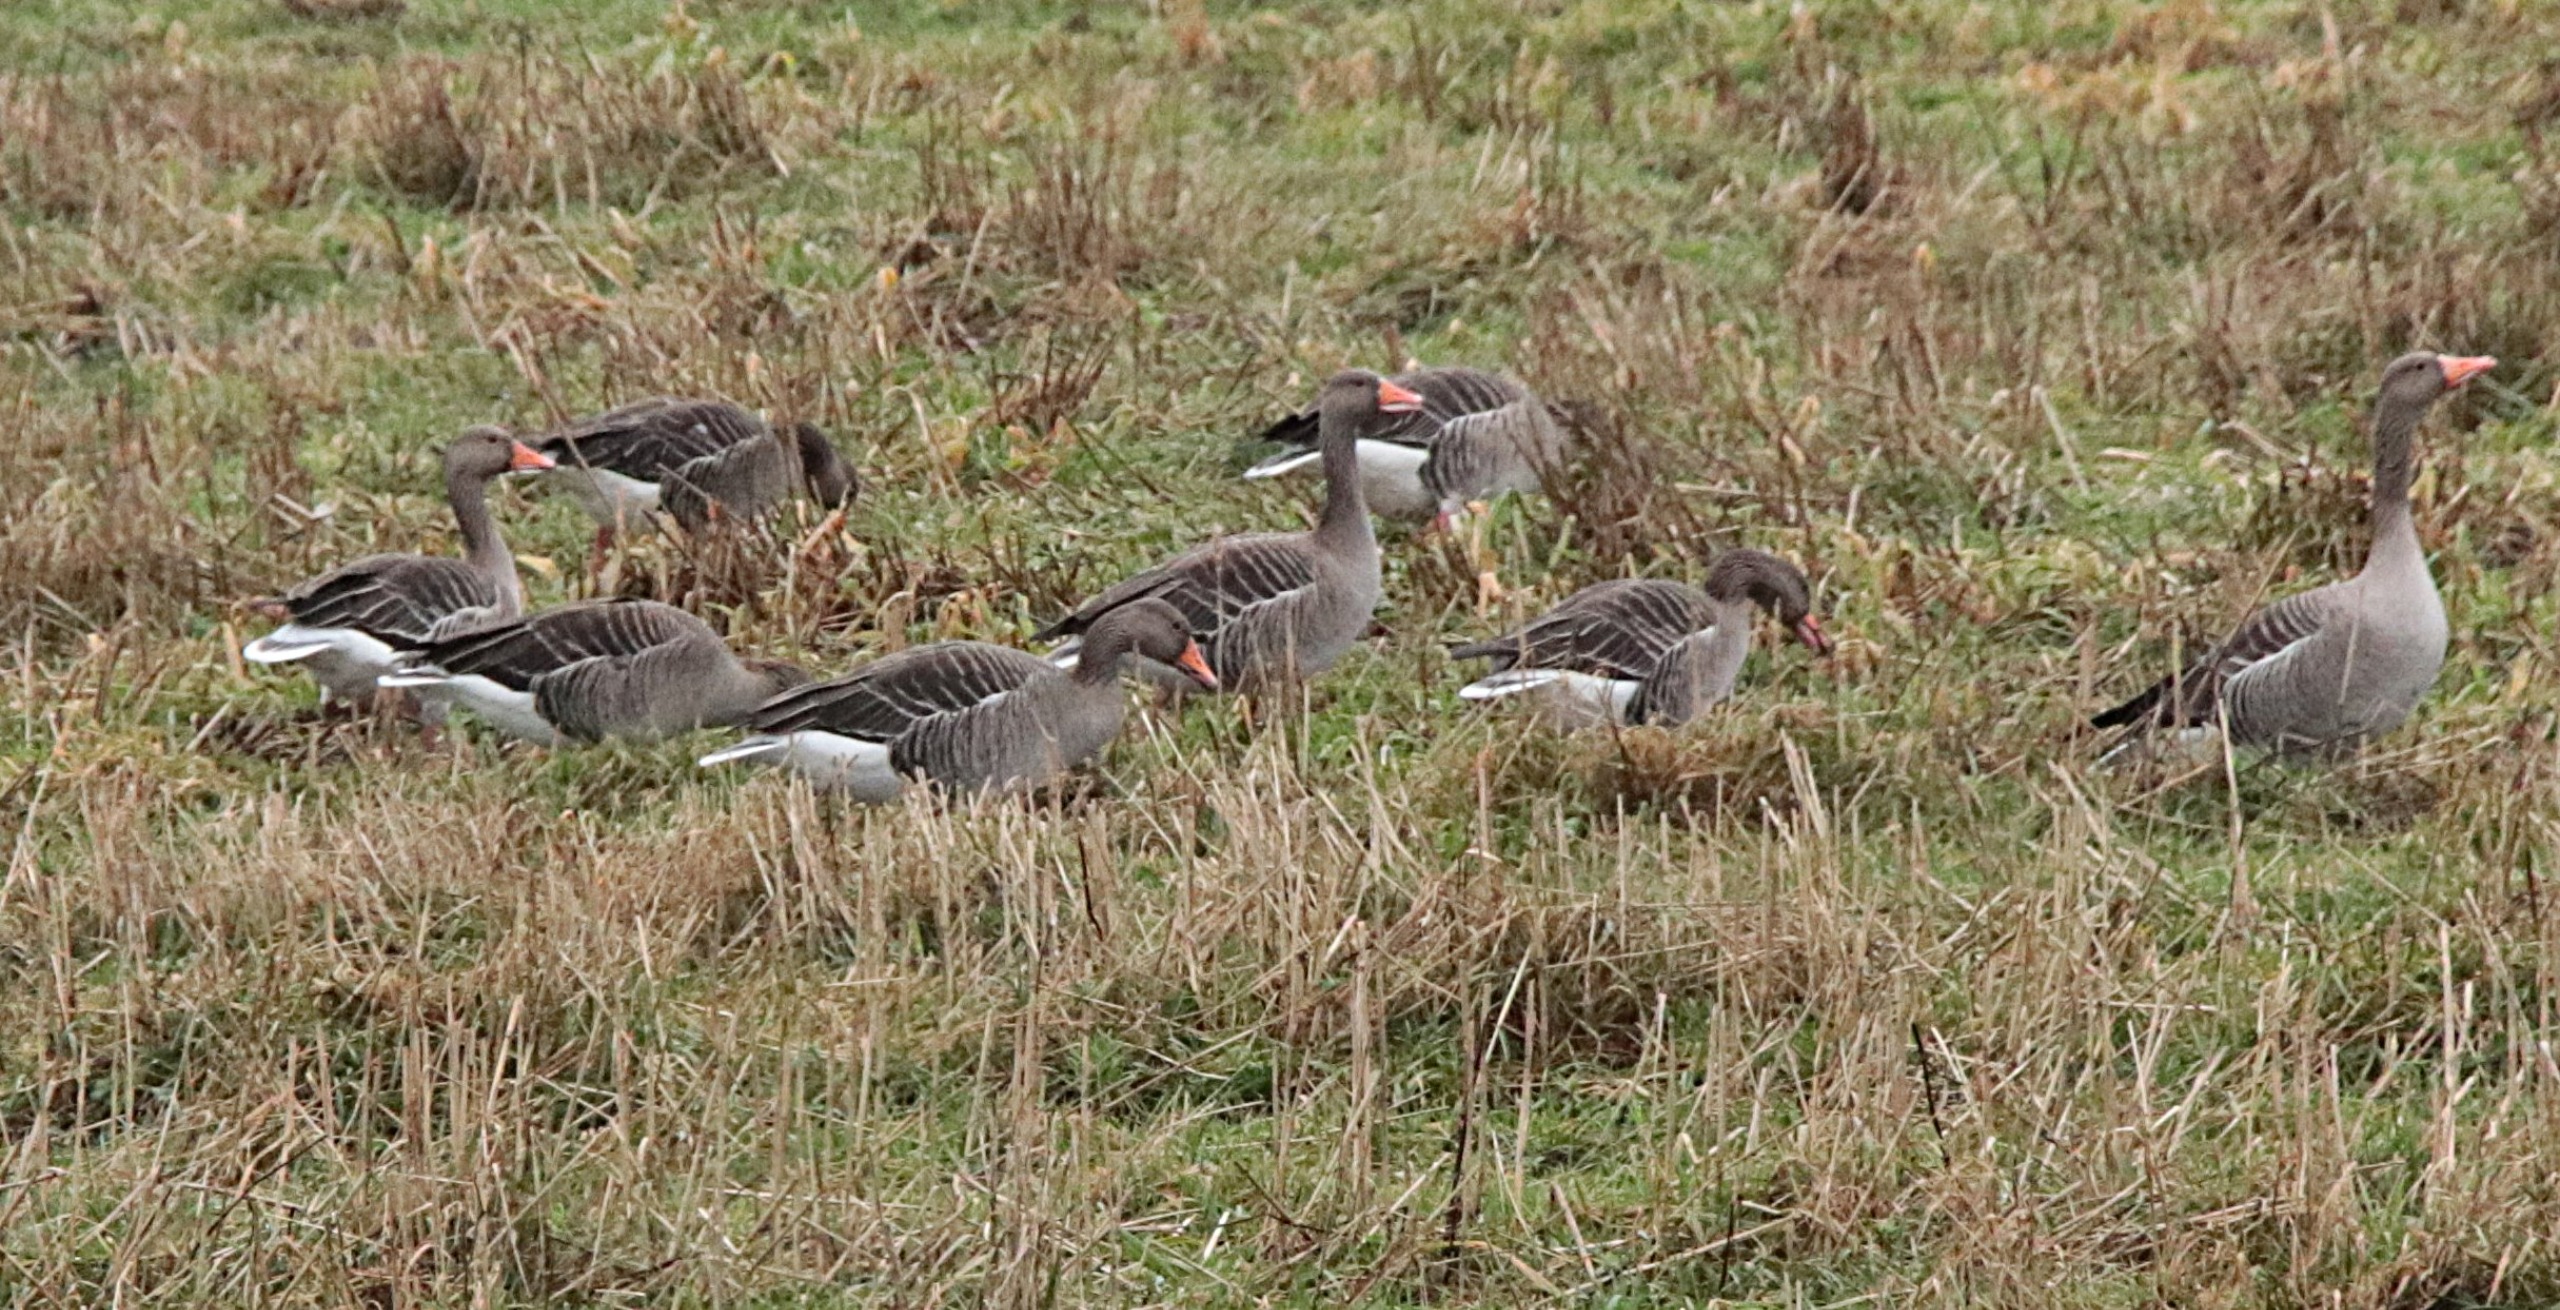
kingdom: Animalia
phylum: Chordata
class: Aves
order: Anseriformes
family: Anatidae
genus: Anser
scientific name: Anser anser
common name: Grågås
